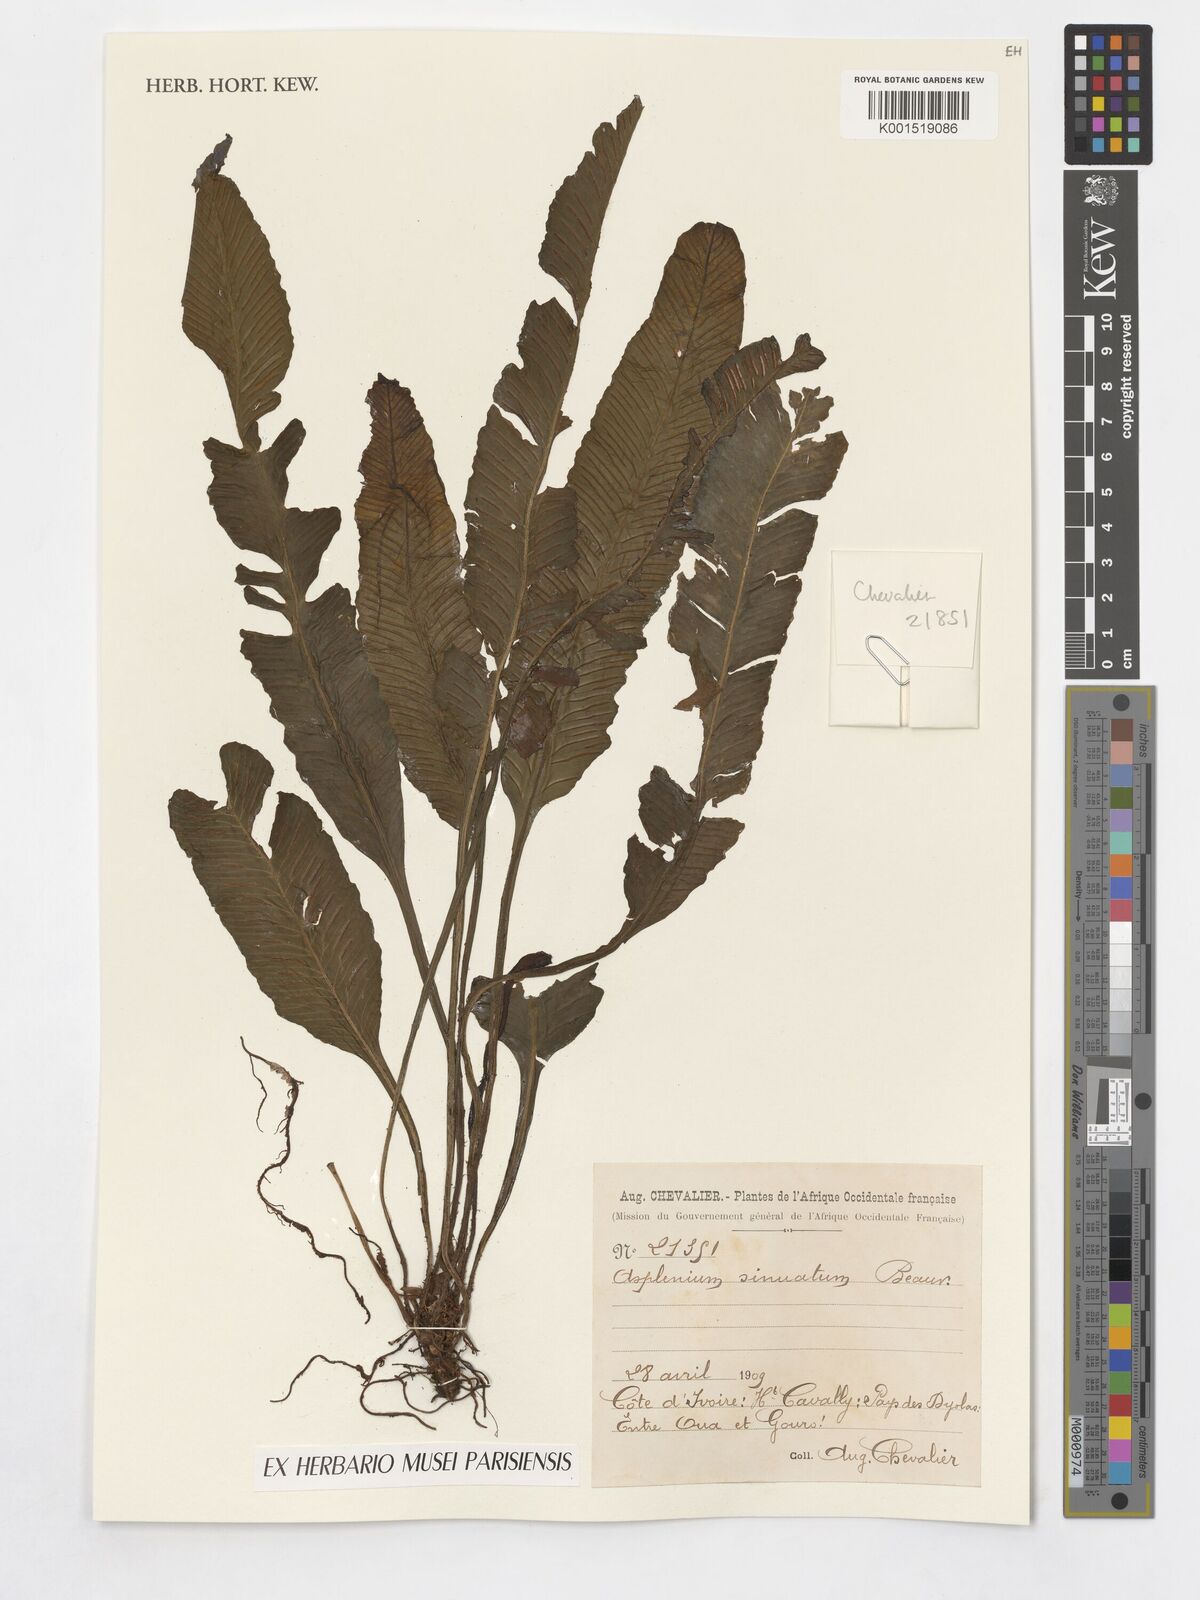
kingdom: Plantae
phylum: Tracheophyta
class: Polypodiopsida
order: Polypodiales
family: Aspleniaceae
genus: Asplenium
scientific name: Asplenium sinuatum
